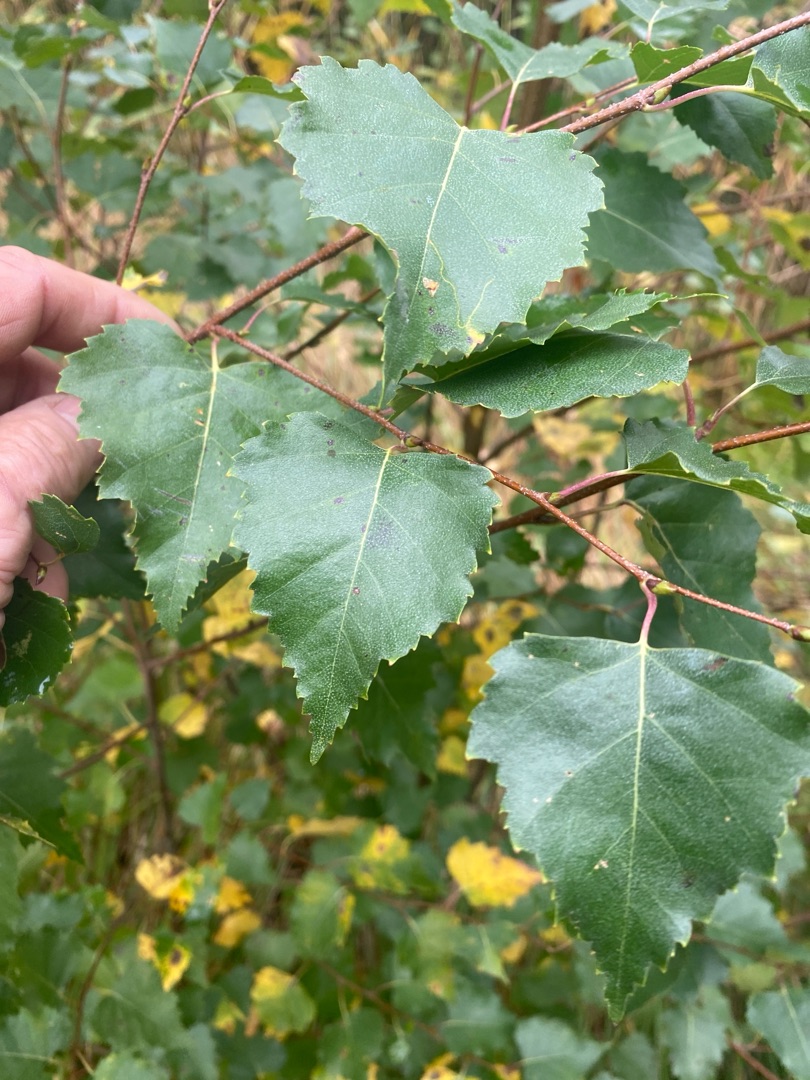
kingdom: Plantae
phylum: Tracheophyta
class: Magnoliopsida
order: Fagales
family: Betulaceae
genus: Betula
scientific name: Betula pendula
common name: Vorte-birk
